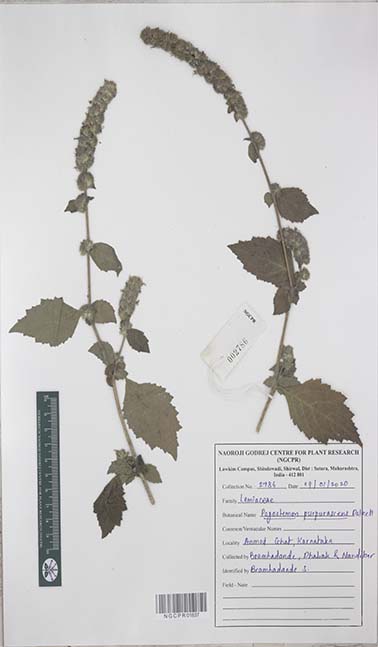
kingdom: Plantae
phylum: Tracheophyta
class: Magnoliopsida
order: Lamiales
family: Lamiaceae
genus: Pogostemon
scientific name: Pogostemon purpurascens
